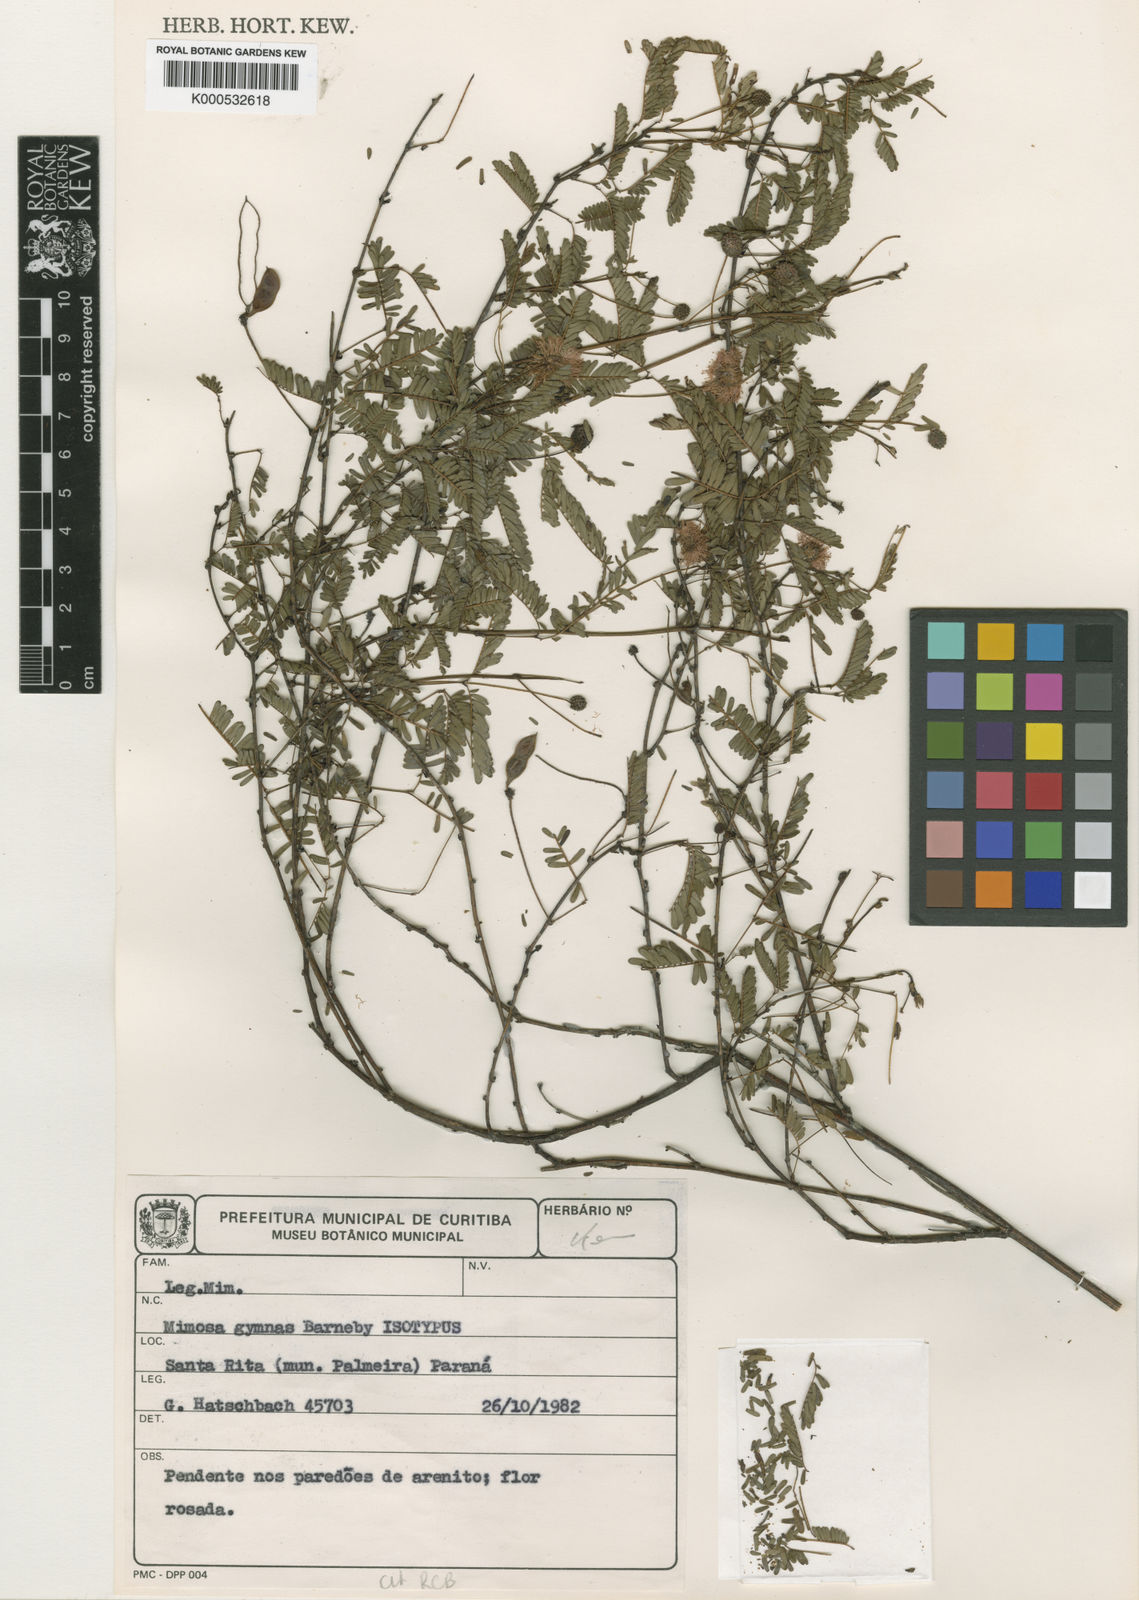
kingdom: Plantae
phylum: Tracheophyta
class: Magnoliopsida
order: Fabales
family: Fabaceae
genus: Mimosa
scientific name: Mimosa gymnas
